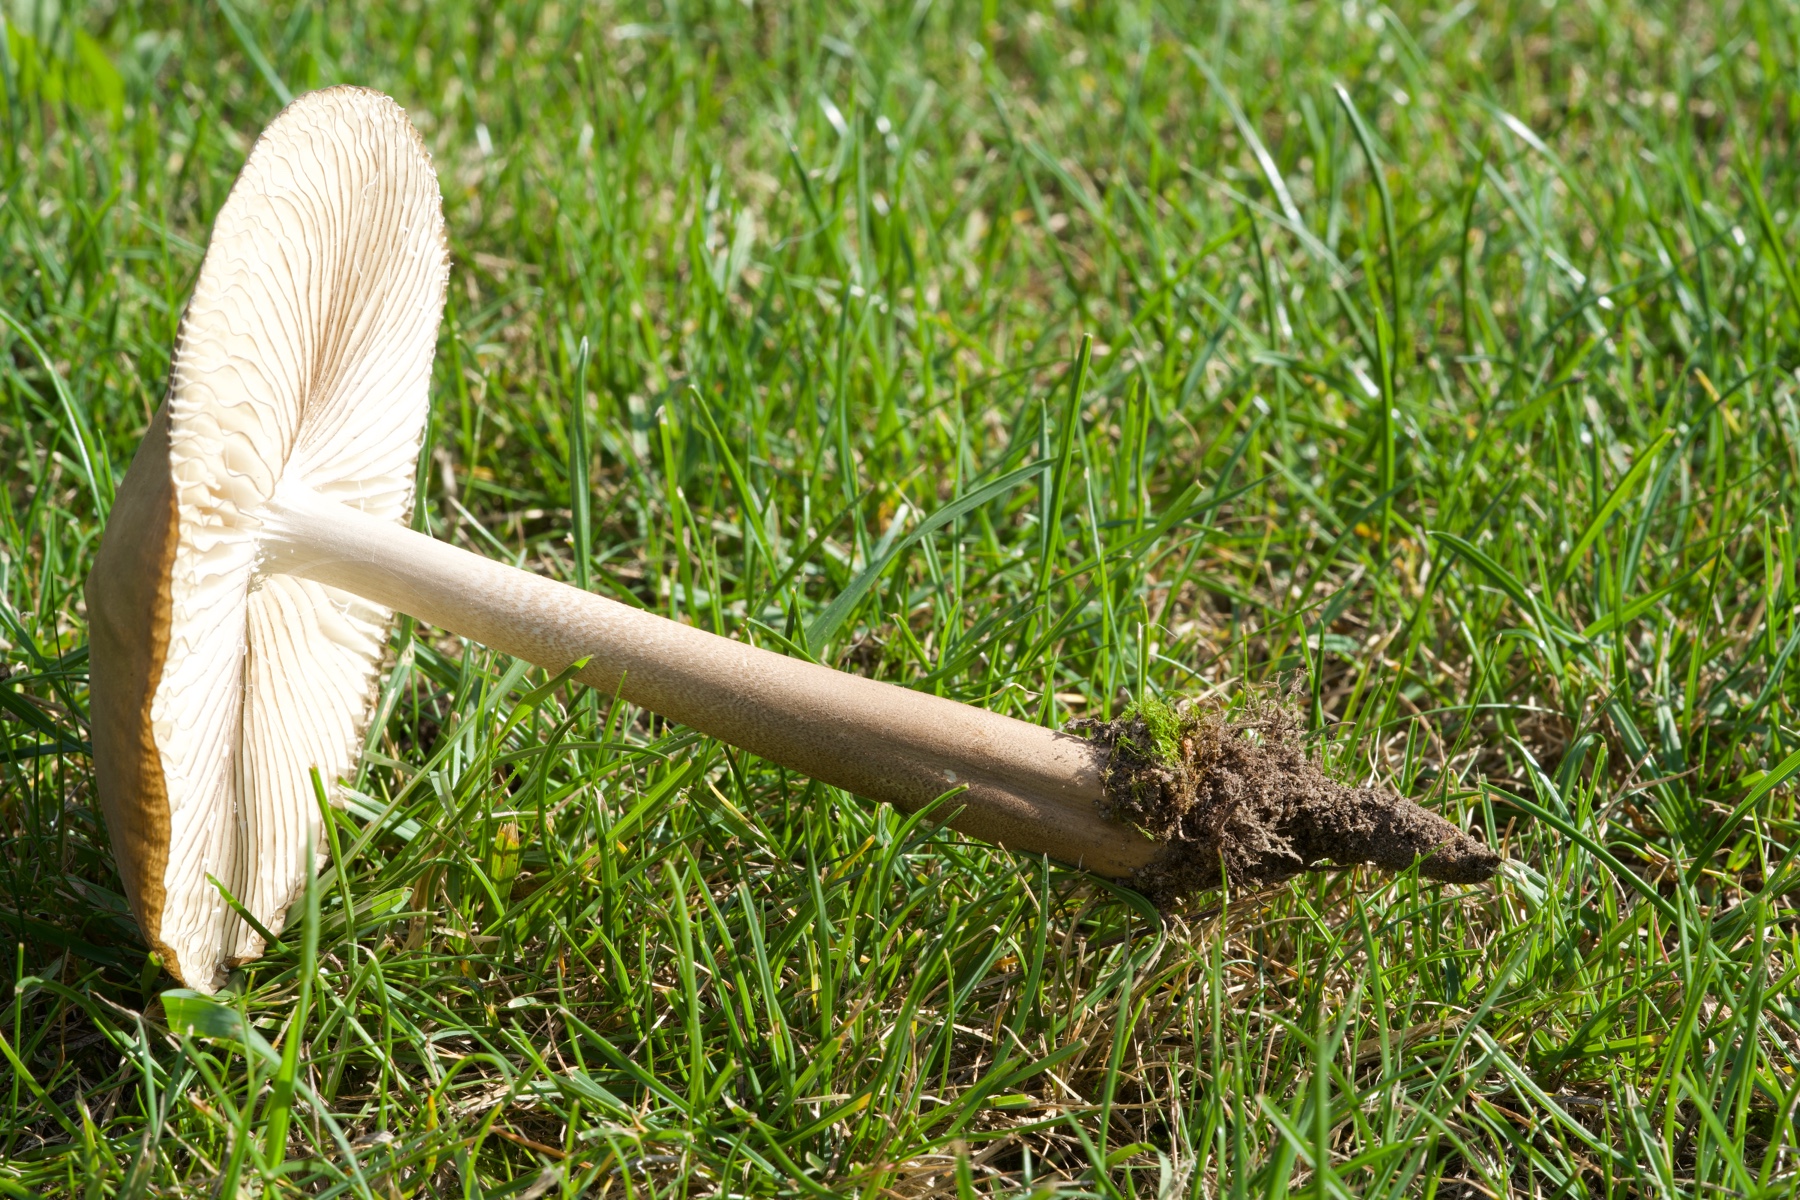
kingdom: Fungi
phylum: Basidiomycota
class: Agaricomycetes
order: Agaricales
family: Physalacriaceae
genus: Hymenopellis
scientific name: Hymenopellis radicata
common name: almindelig pælerodshat
